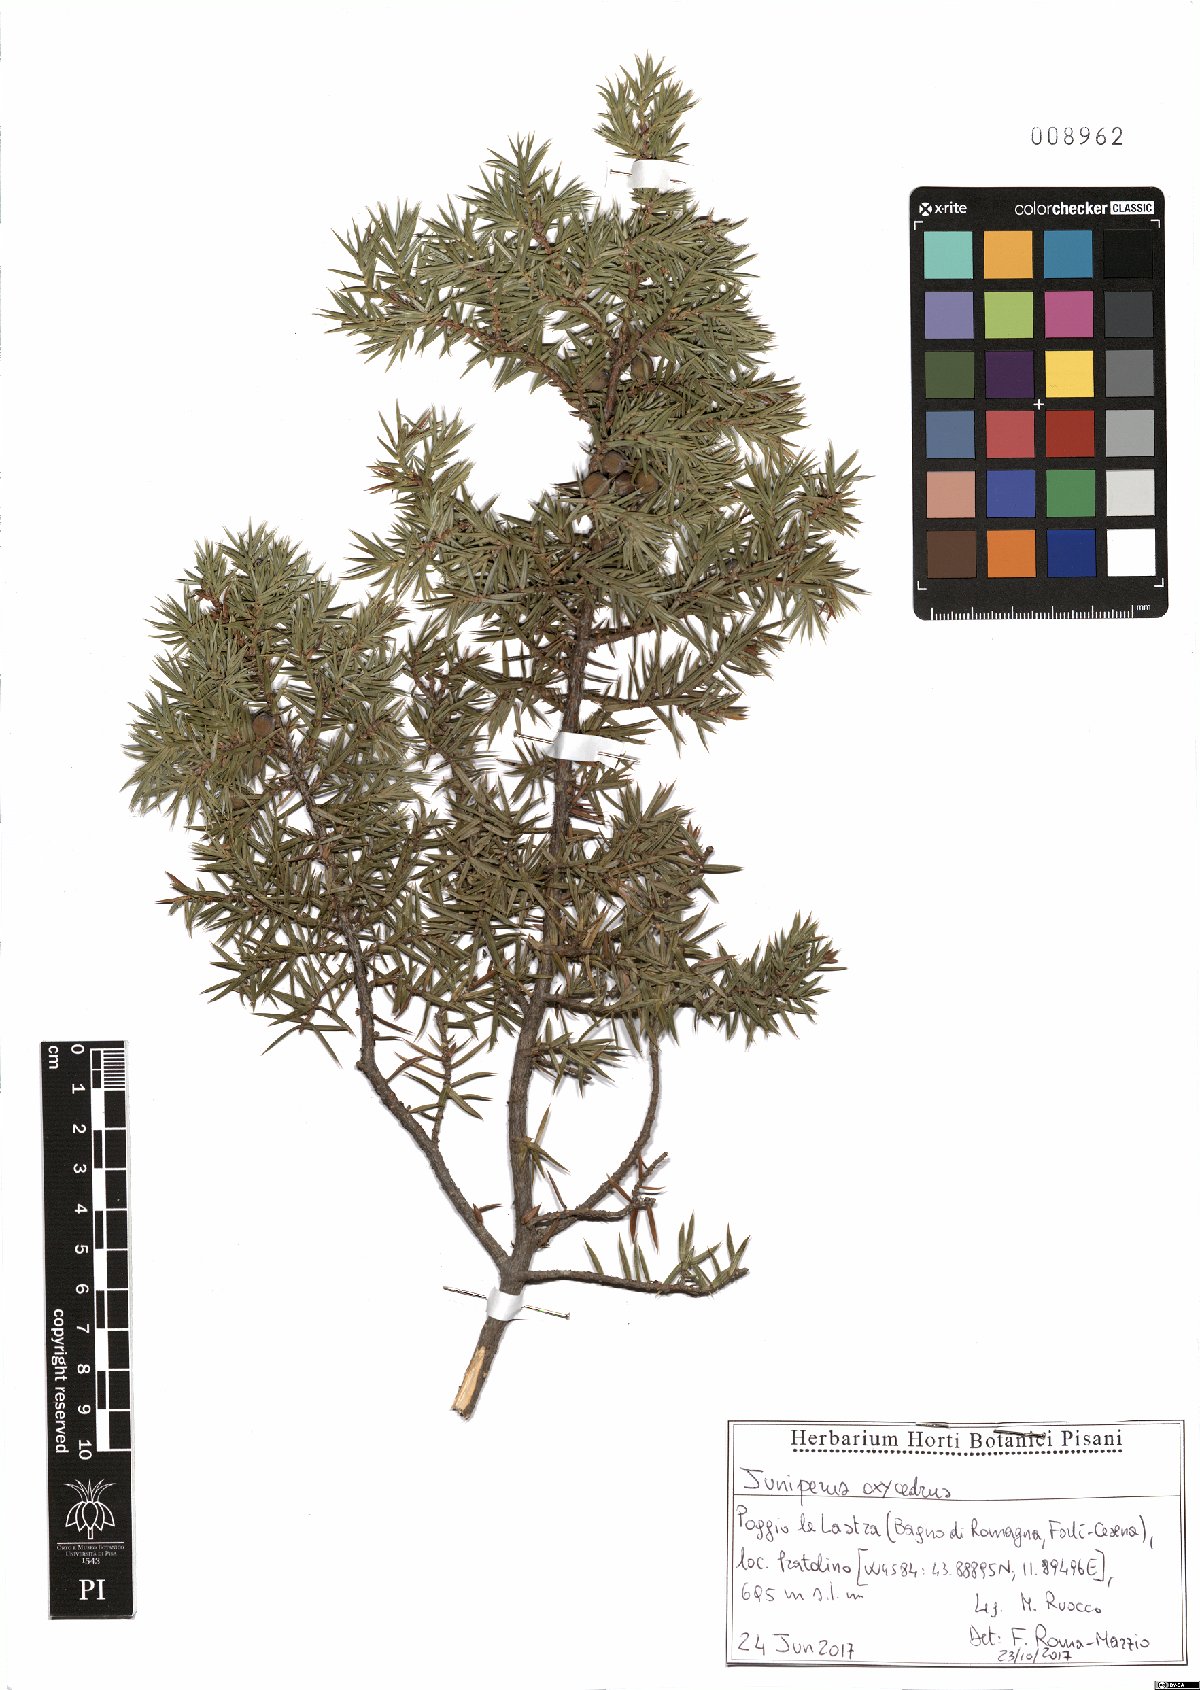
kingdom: Plantae
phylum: Tracheophyta
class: Pinopsida
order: Pinales
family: Cupressaceae
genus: Juniperus
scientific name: Juniperus oxycedrus
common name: Prickly juniper
